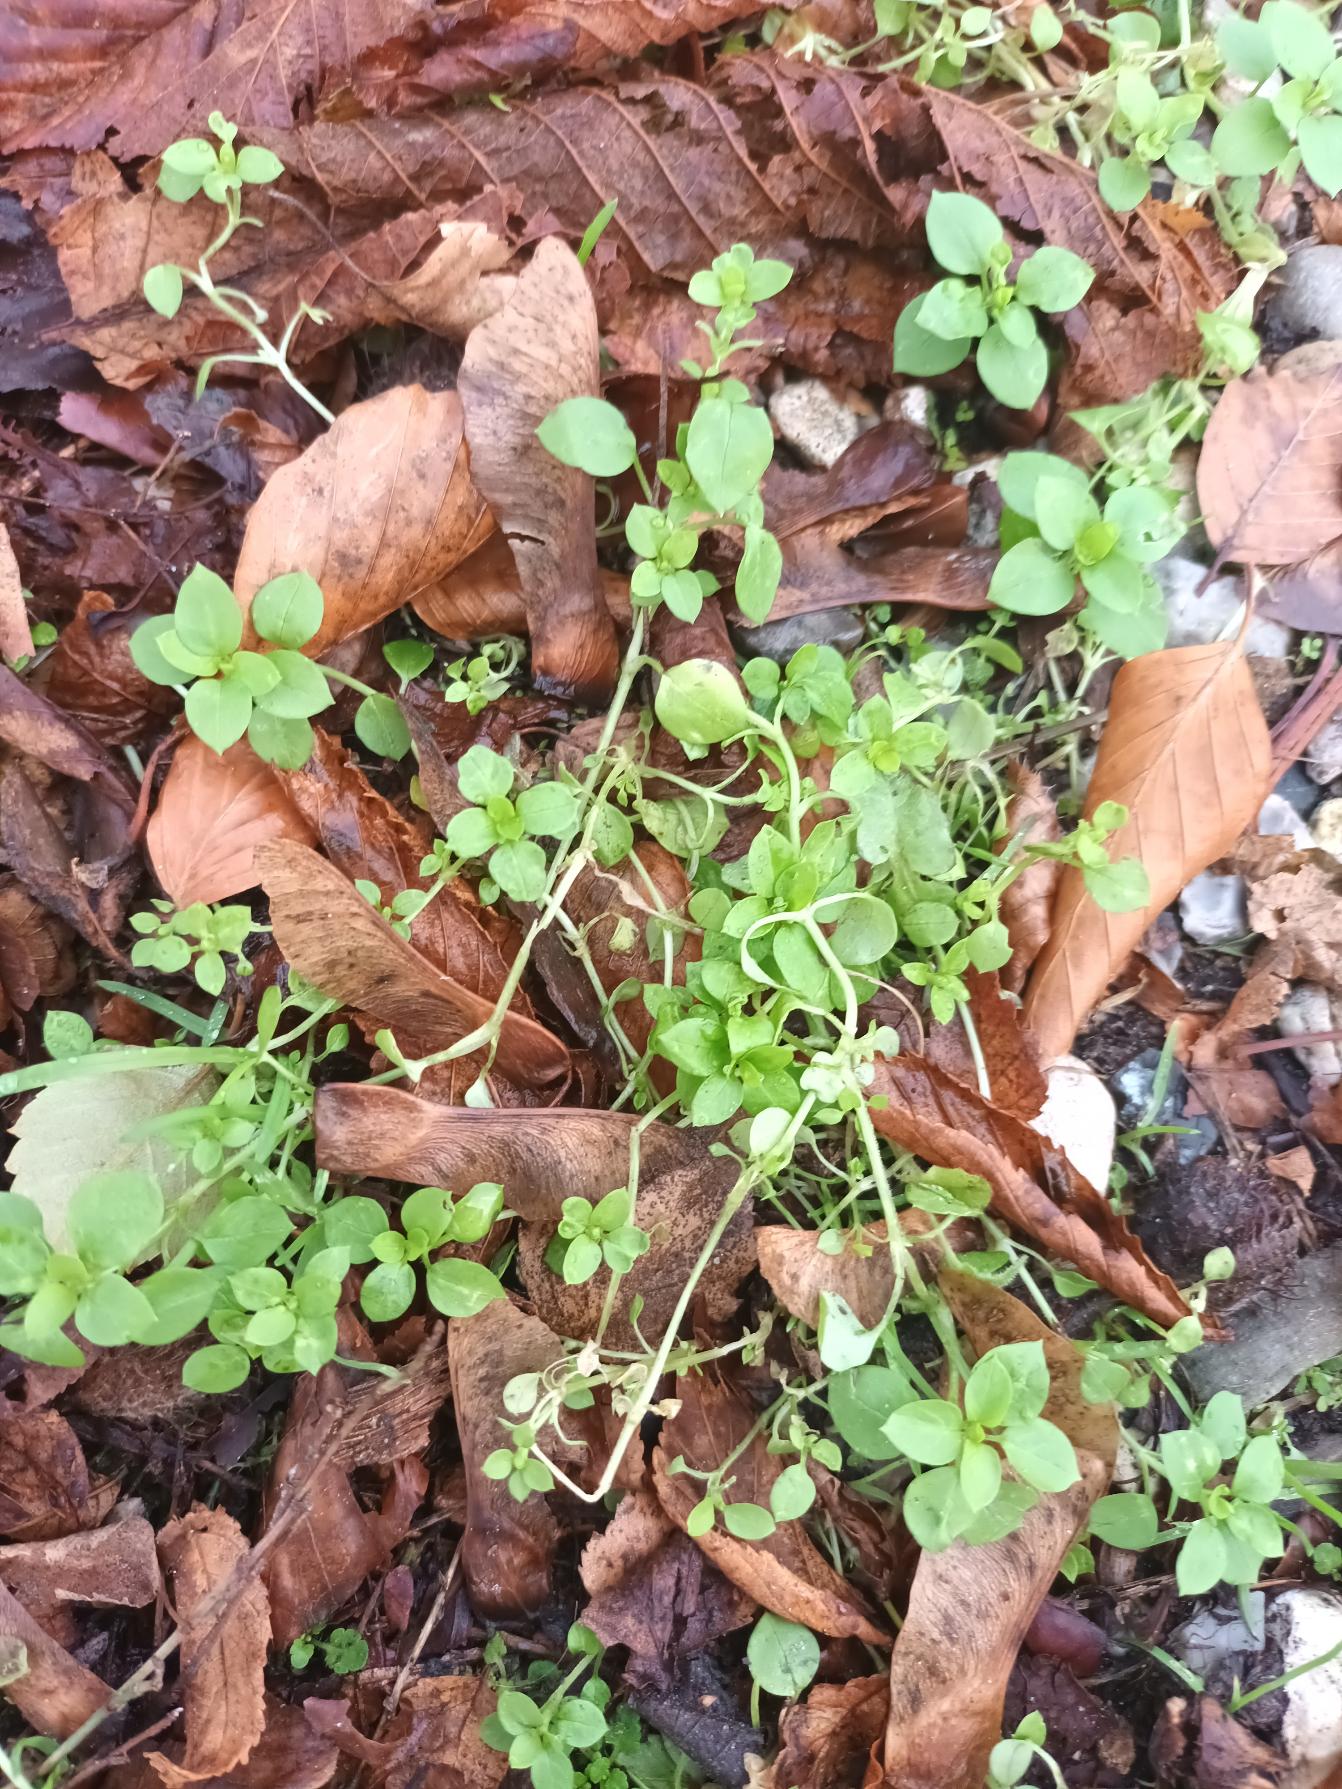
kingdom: Plantae
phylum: Tracheophyta
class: Magnoliopsida
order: Caryophyllales
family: Caryophyllaceae
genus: Stellaria
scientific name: Stellaria media
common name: Almindelig fuglegræs
